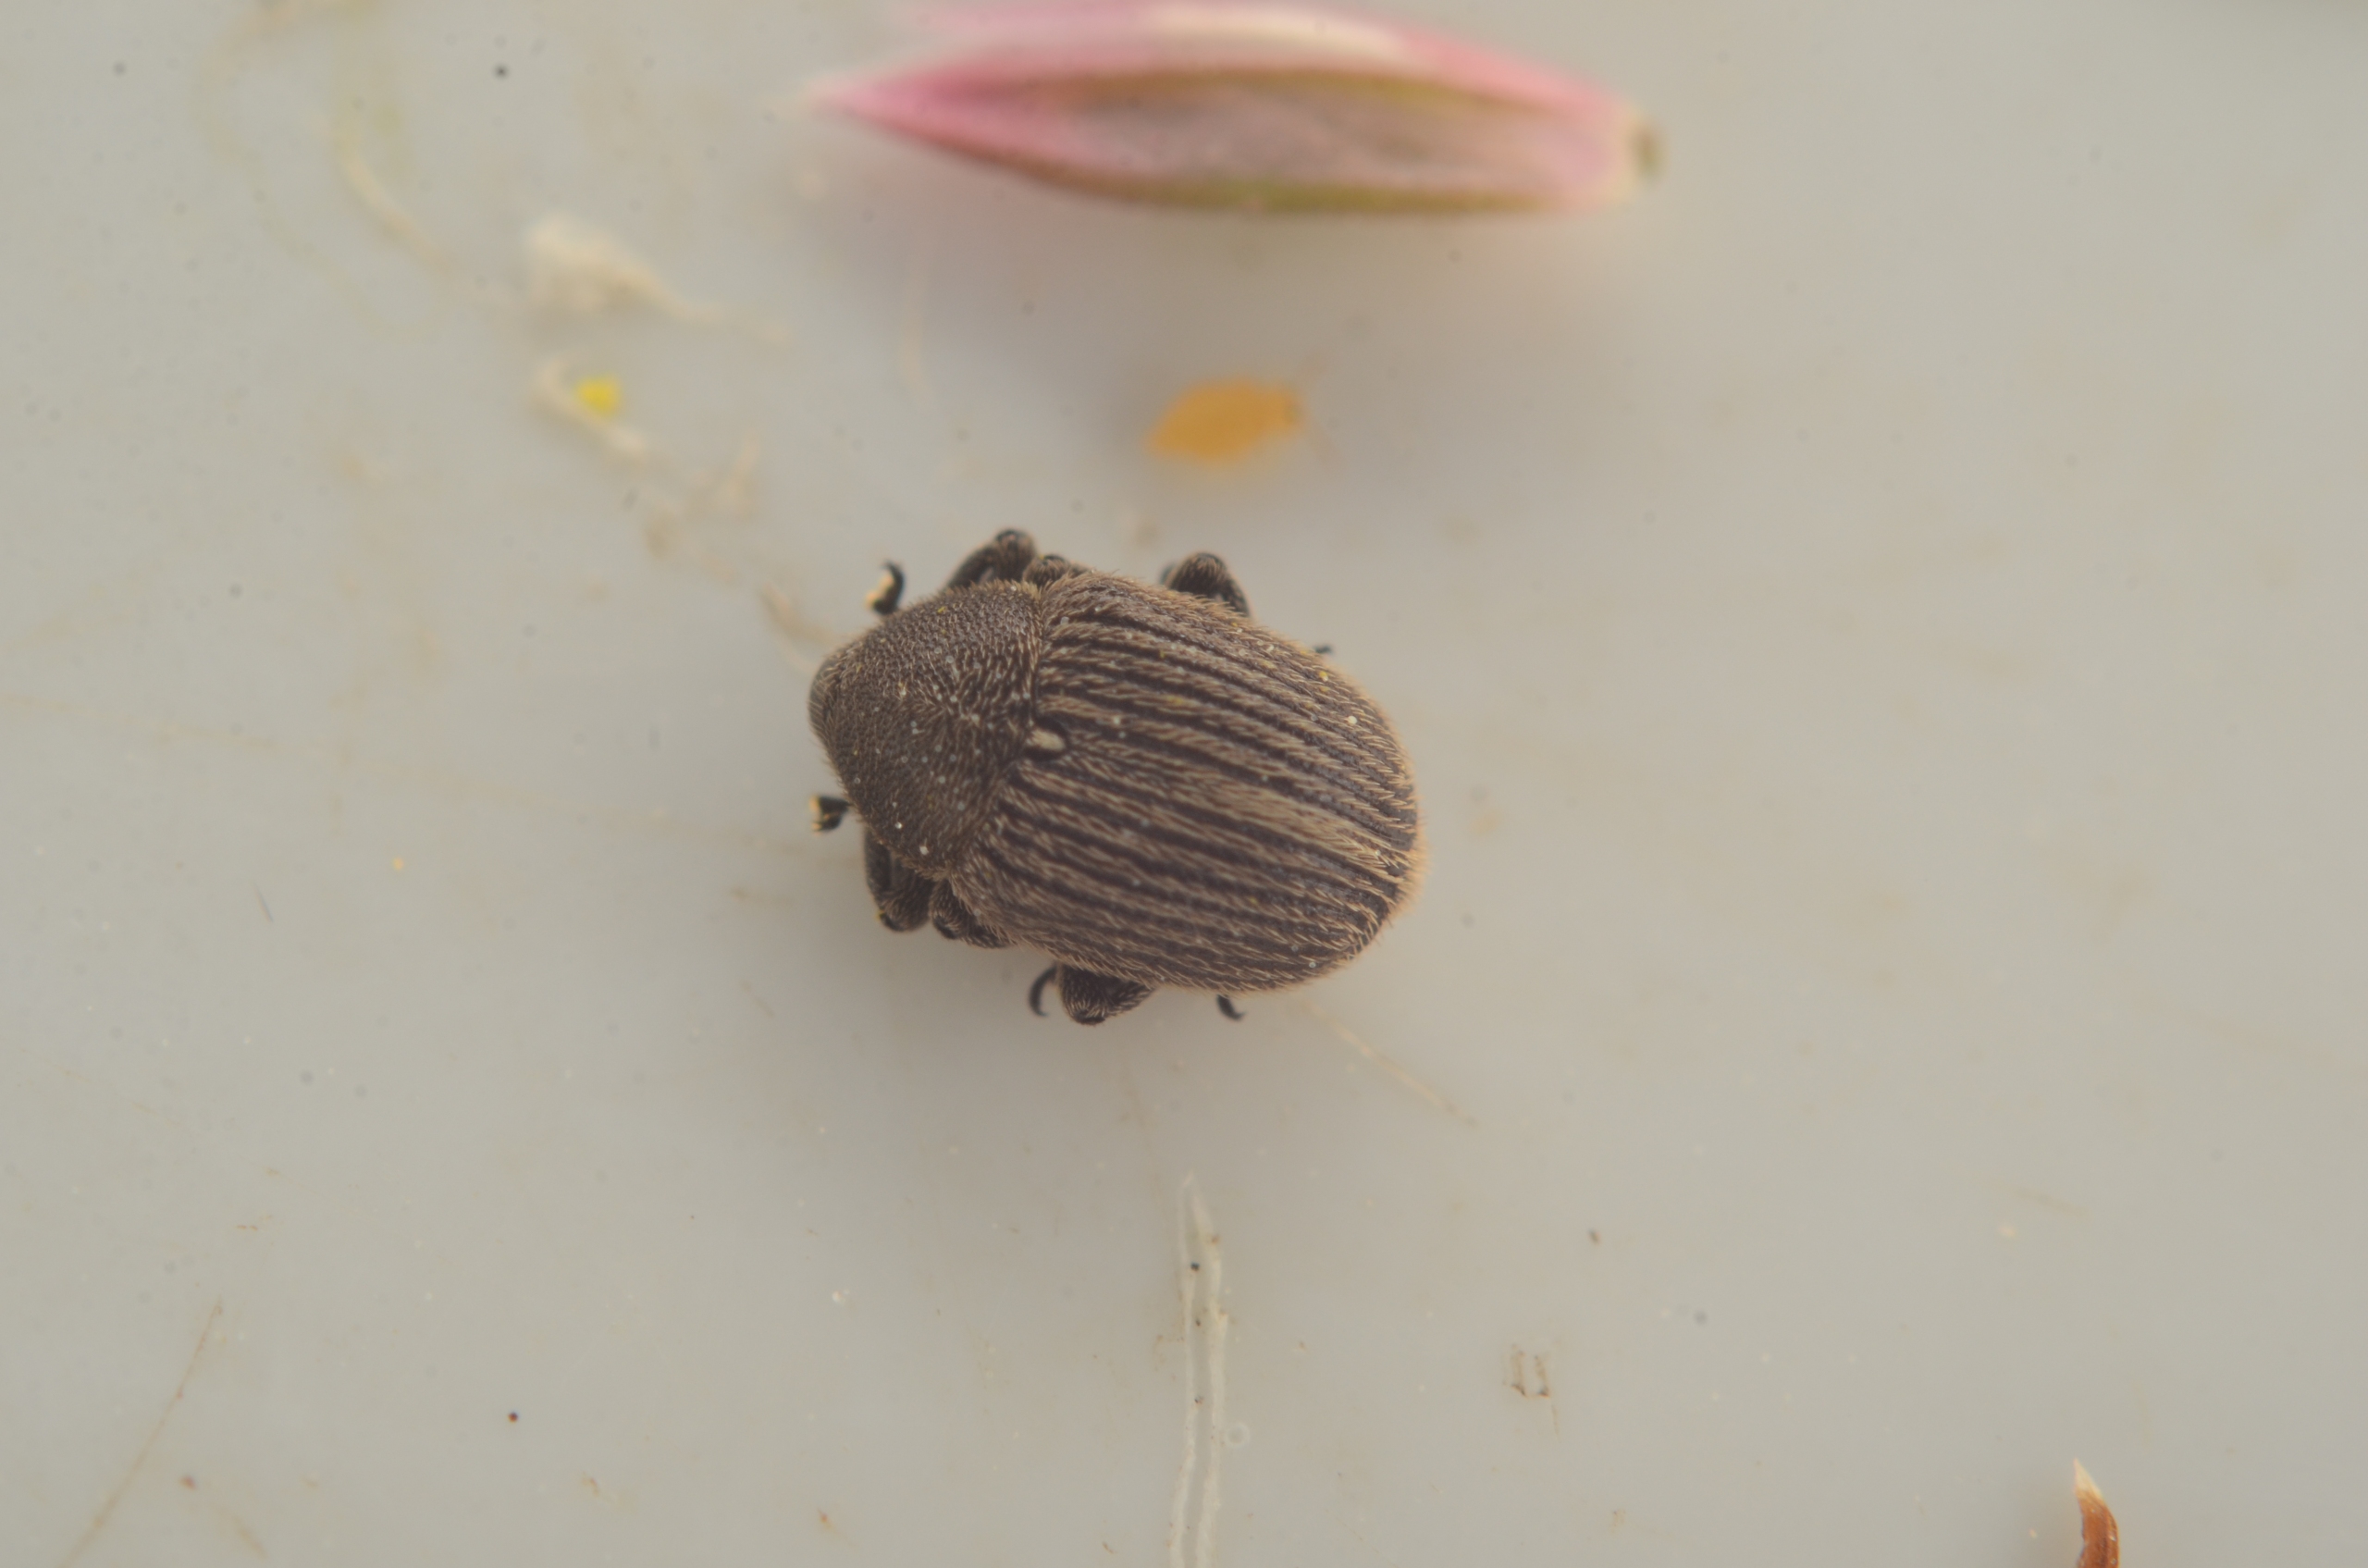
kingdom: Animalia
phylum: Arthropoda
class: Insecta
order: Coleoptera
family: Curculionidae
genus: Cleopomiarus
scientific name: Cleopomiarus graminis
